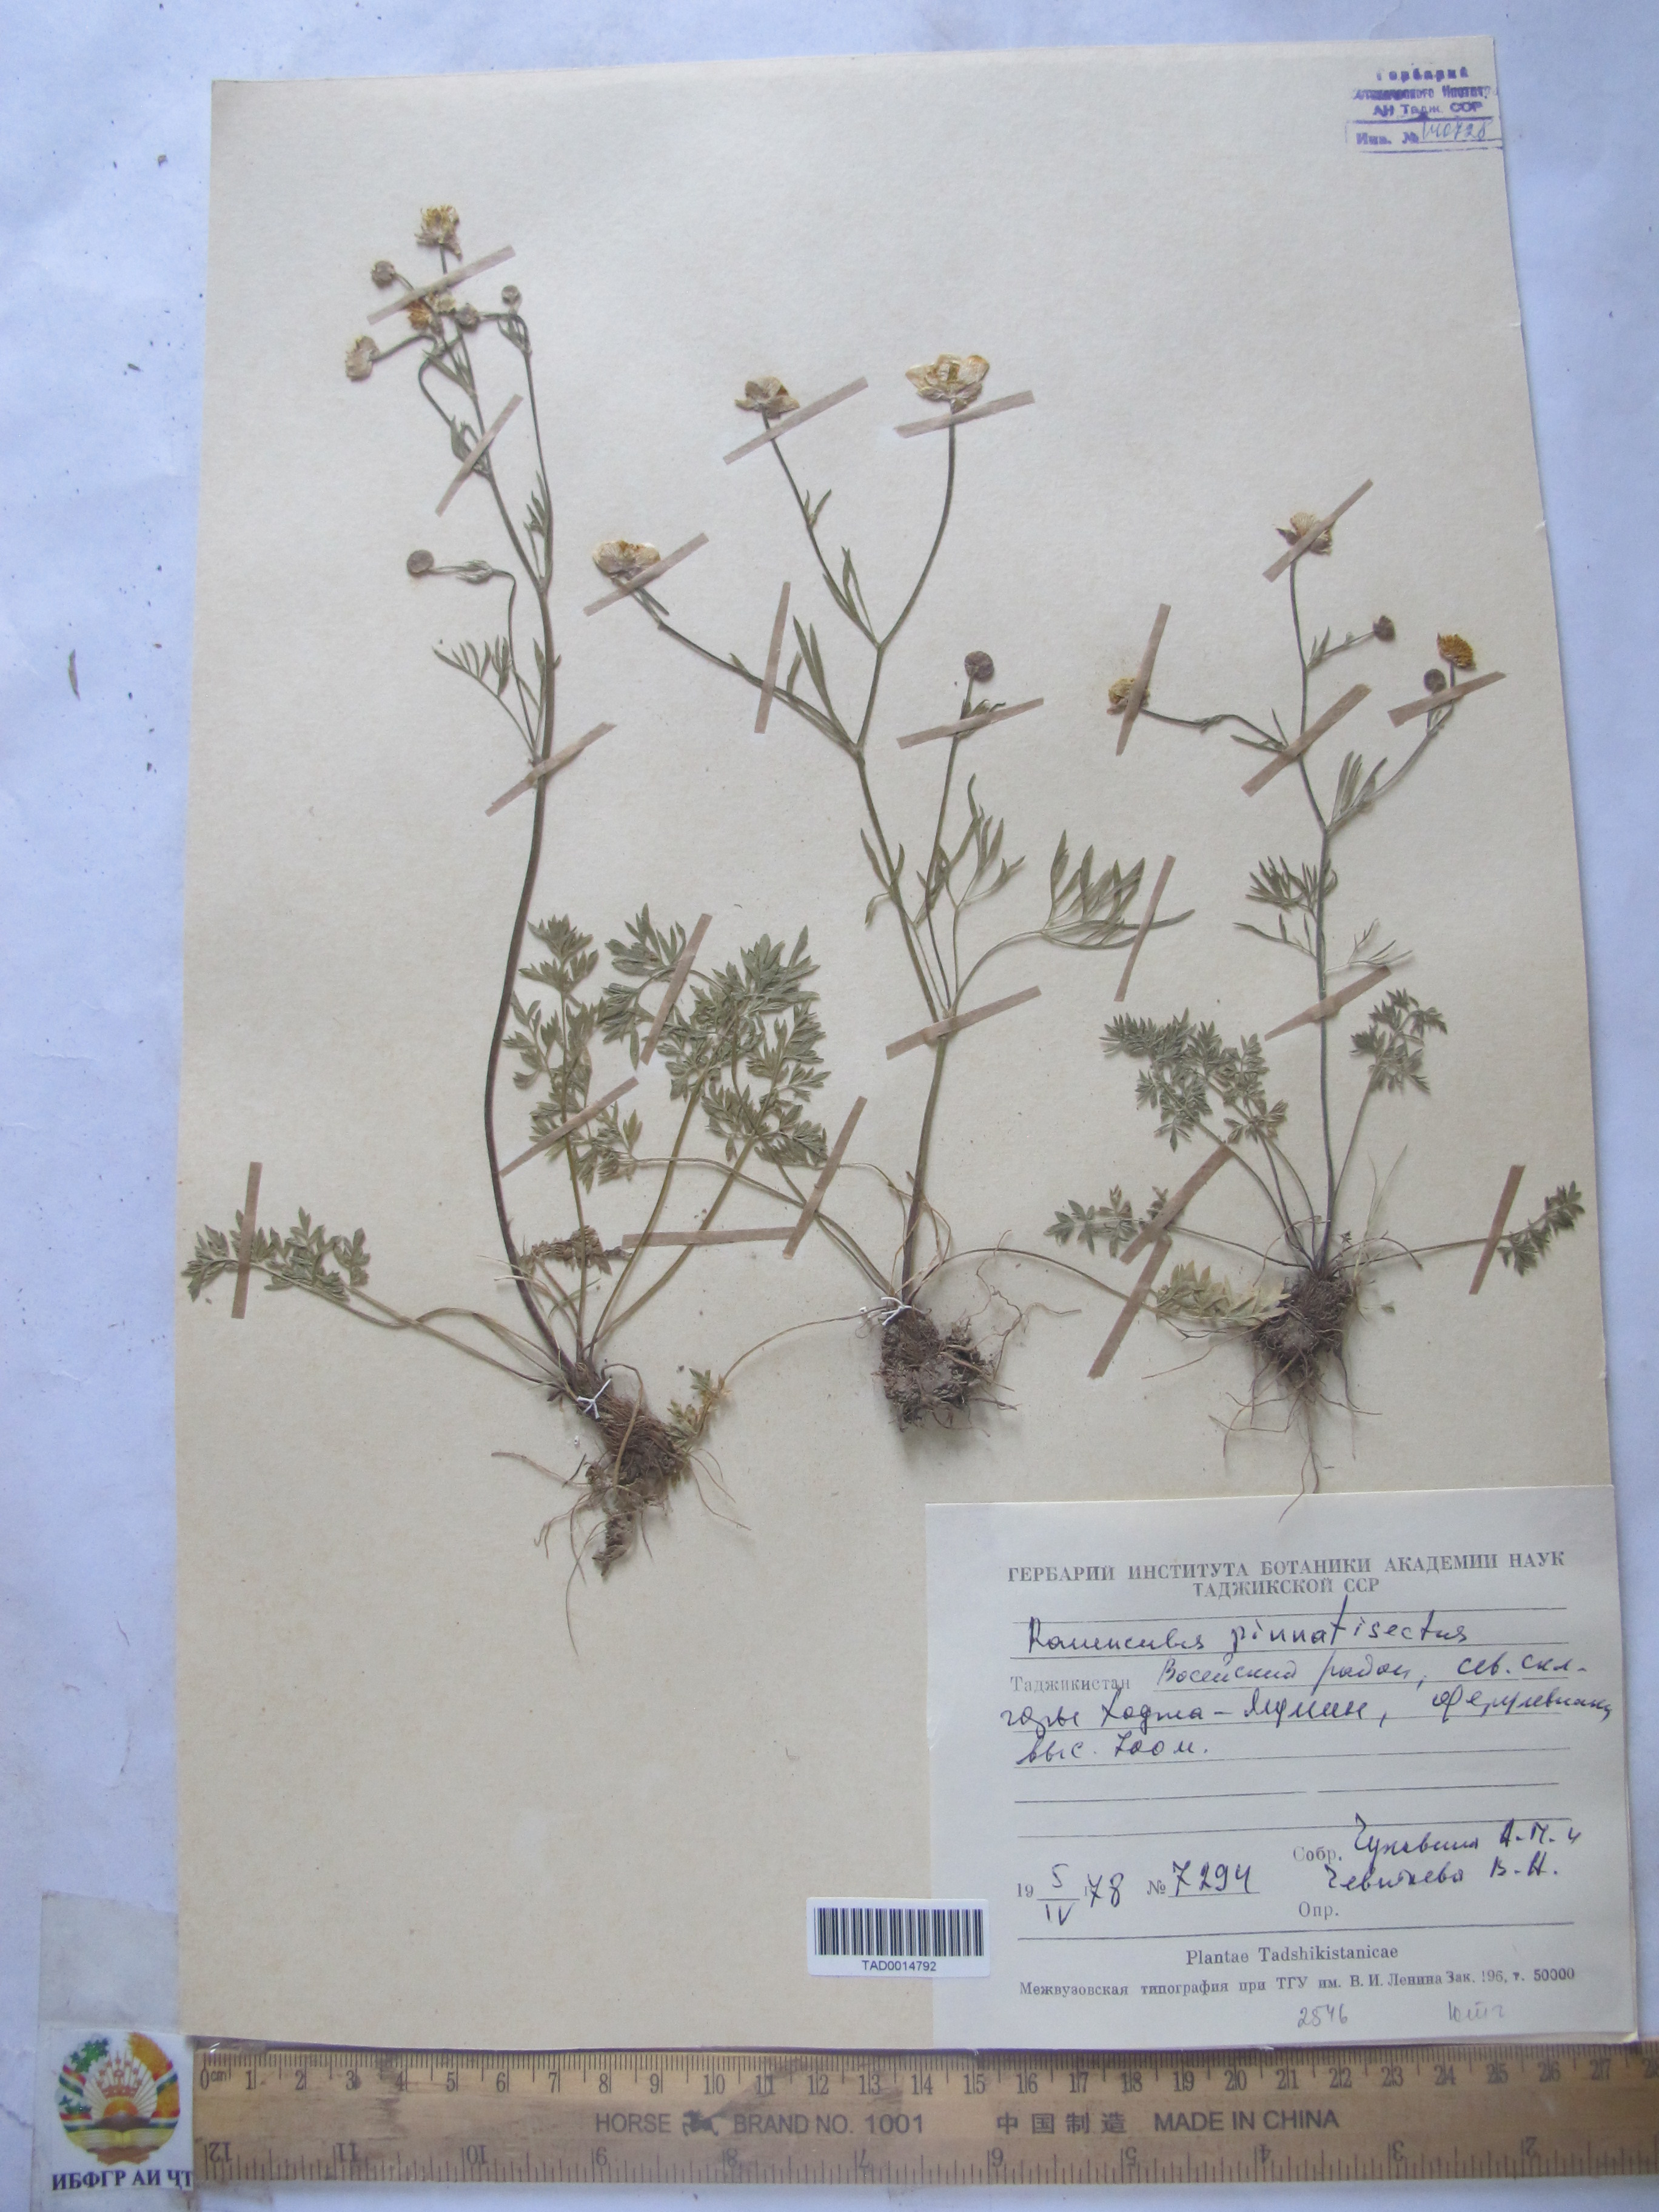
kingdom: Plantae
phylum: Tracheophyta
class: Magnoliopsida
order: Ranunculales
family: Ranunculaceae
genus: Ranunculus
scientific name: Ranunculus pinnatisectus
